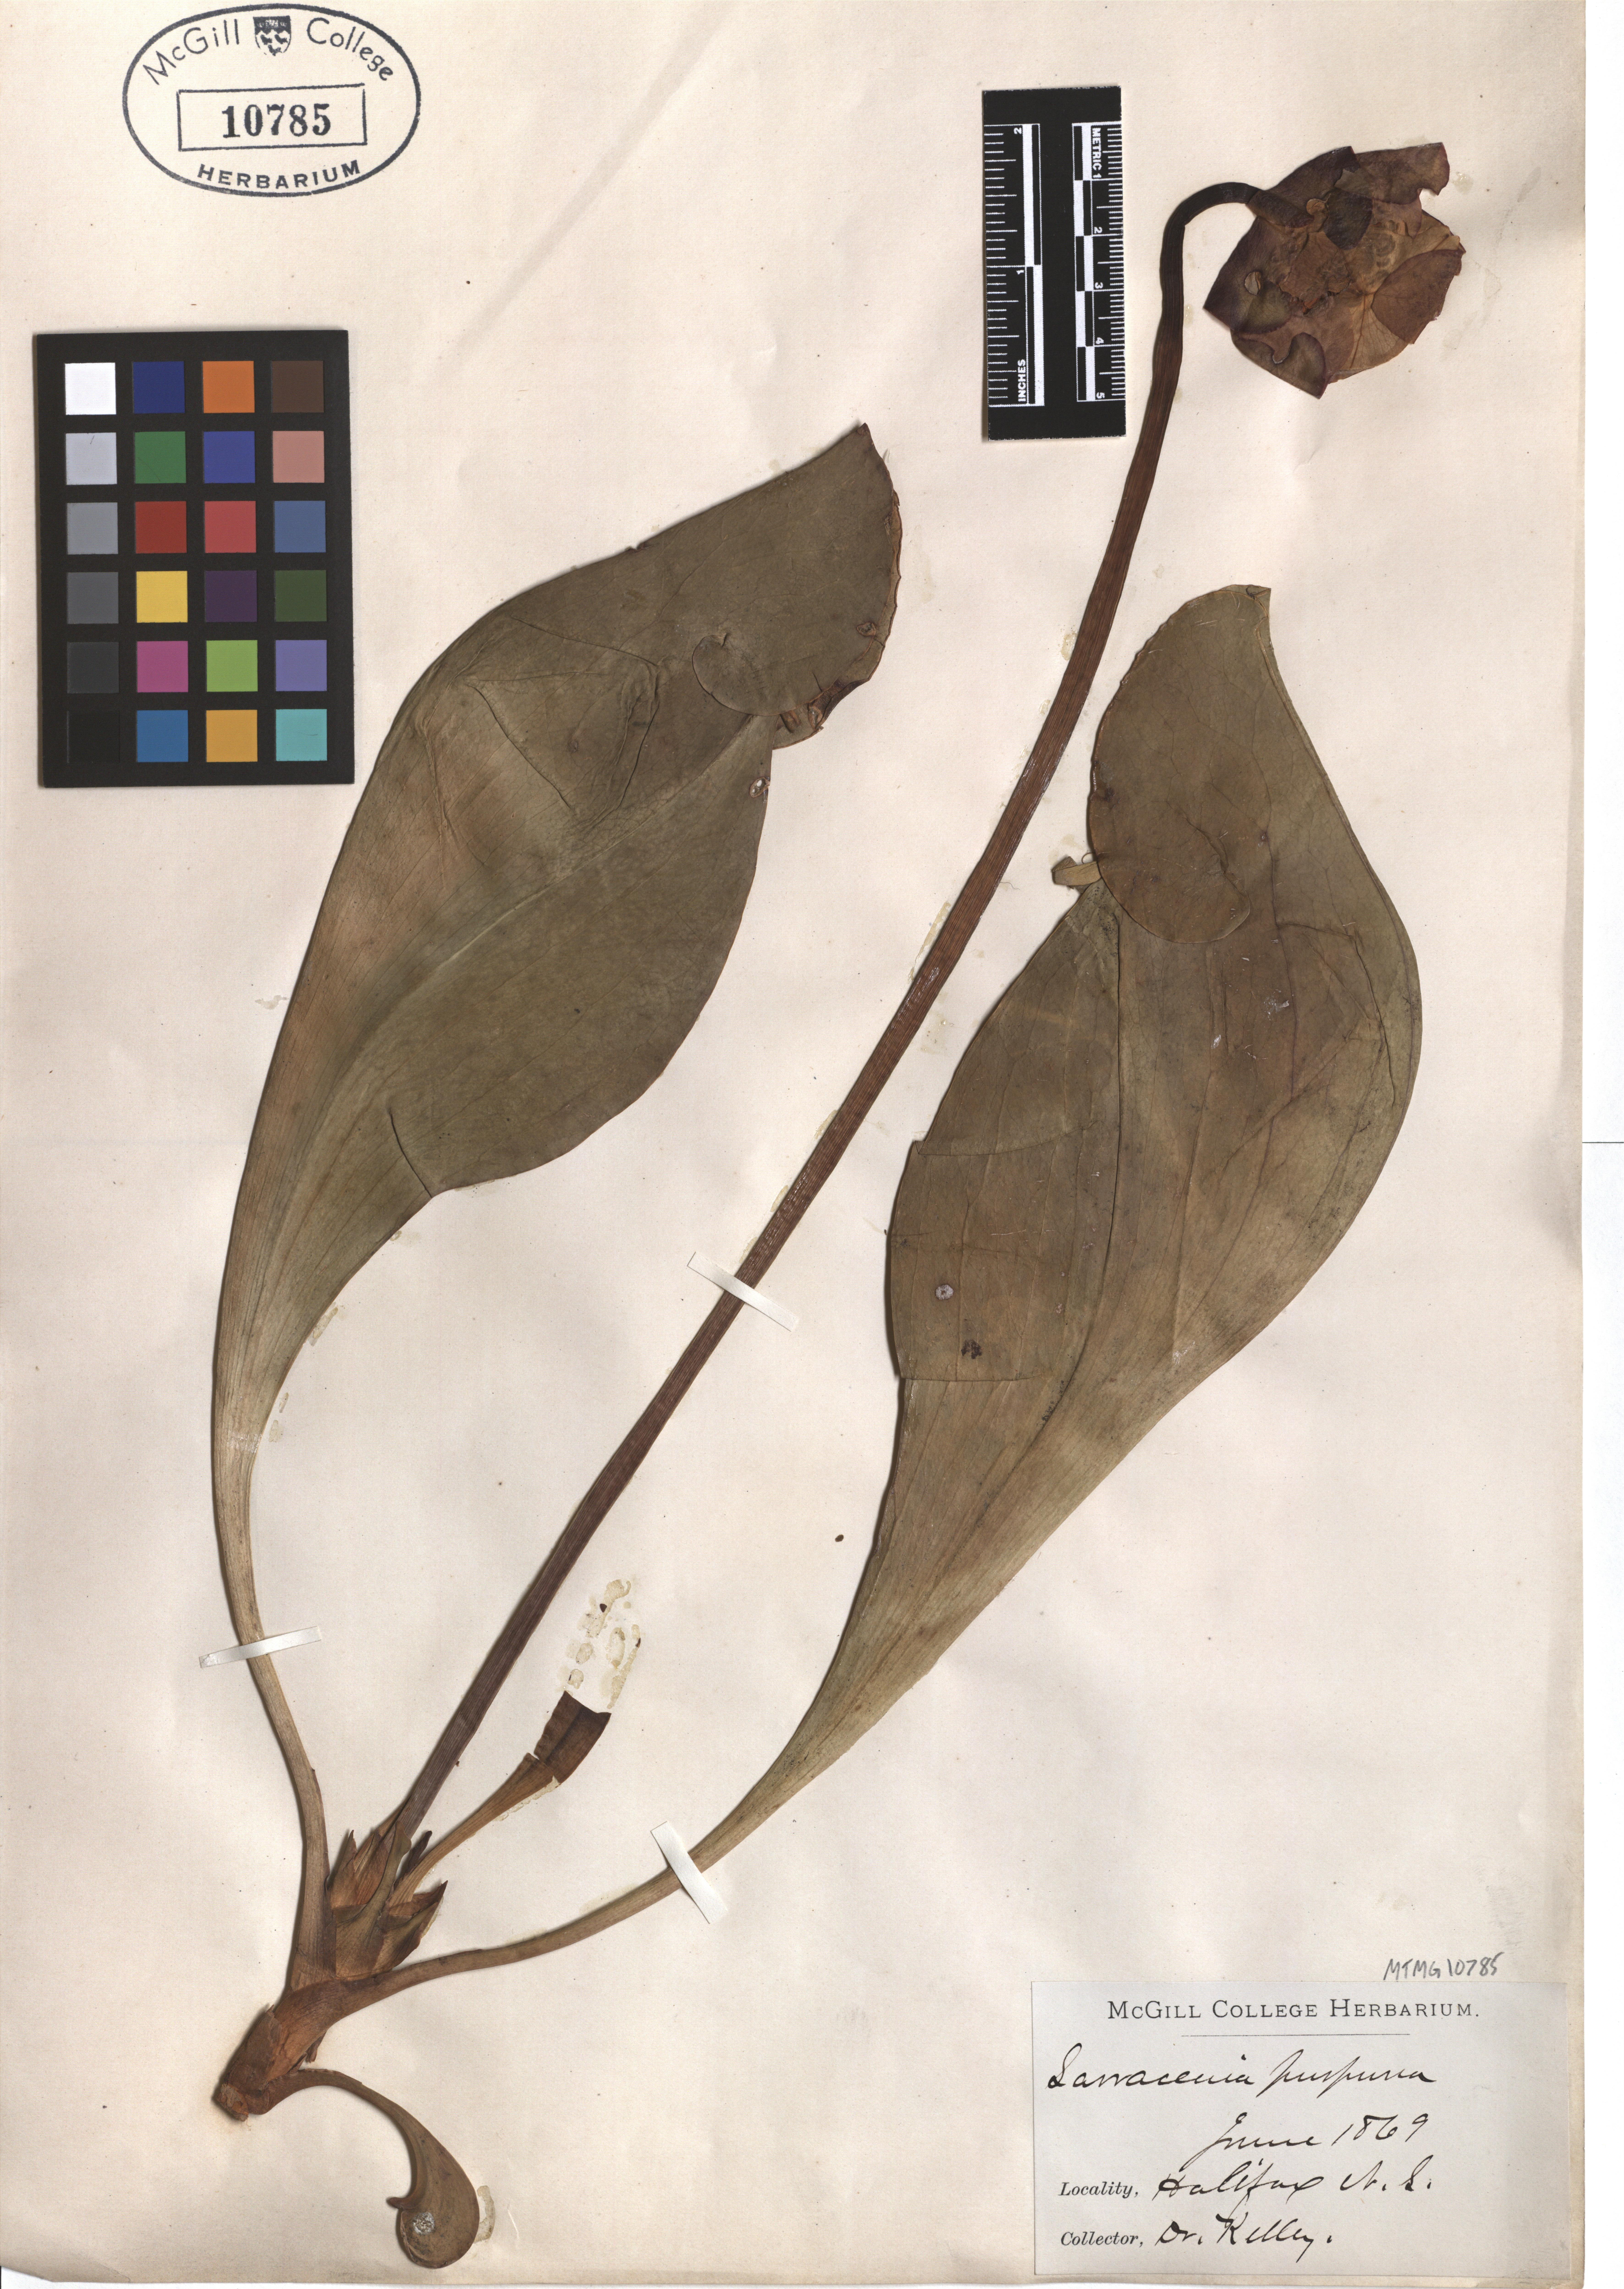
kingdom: Plantae
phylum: Tracheophyta
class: Magnoliopsida
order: Ericales
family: Sarraceniaceae
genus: Sarracenia
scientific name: Sarracenia purpurea
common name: Pitcherplant
